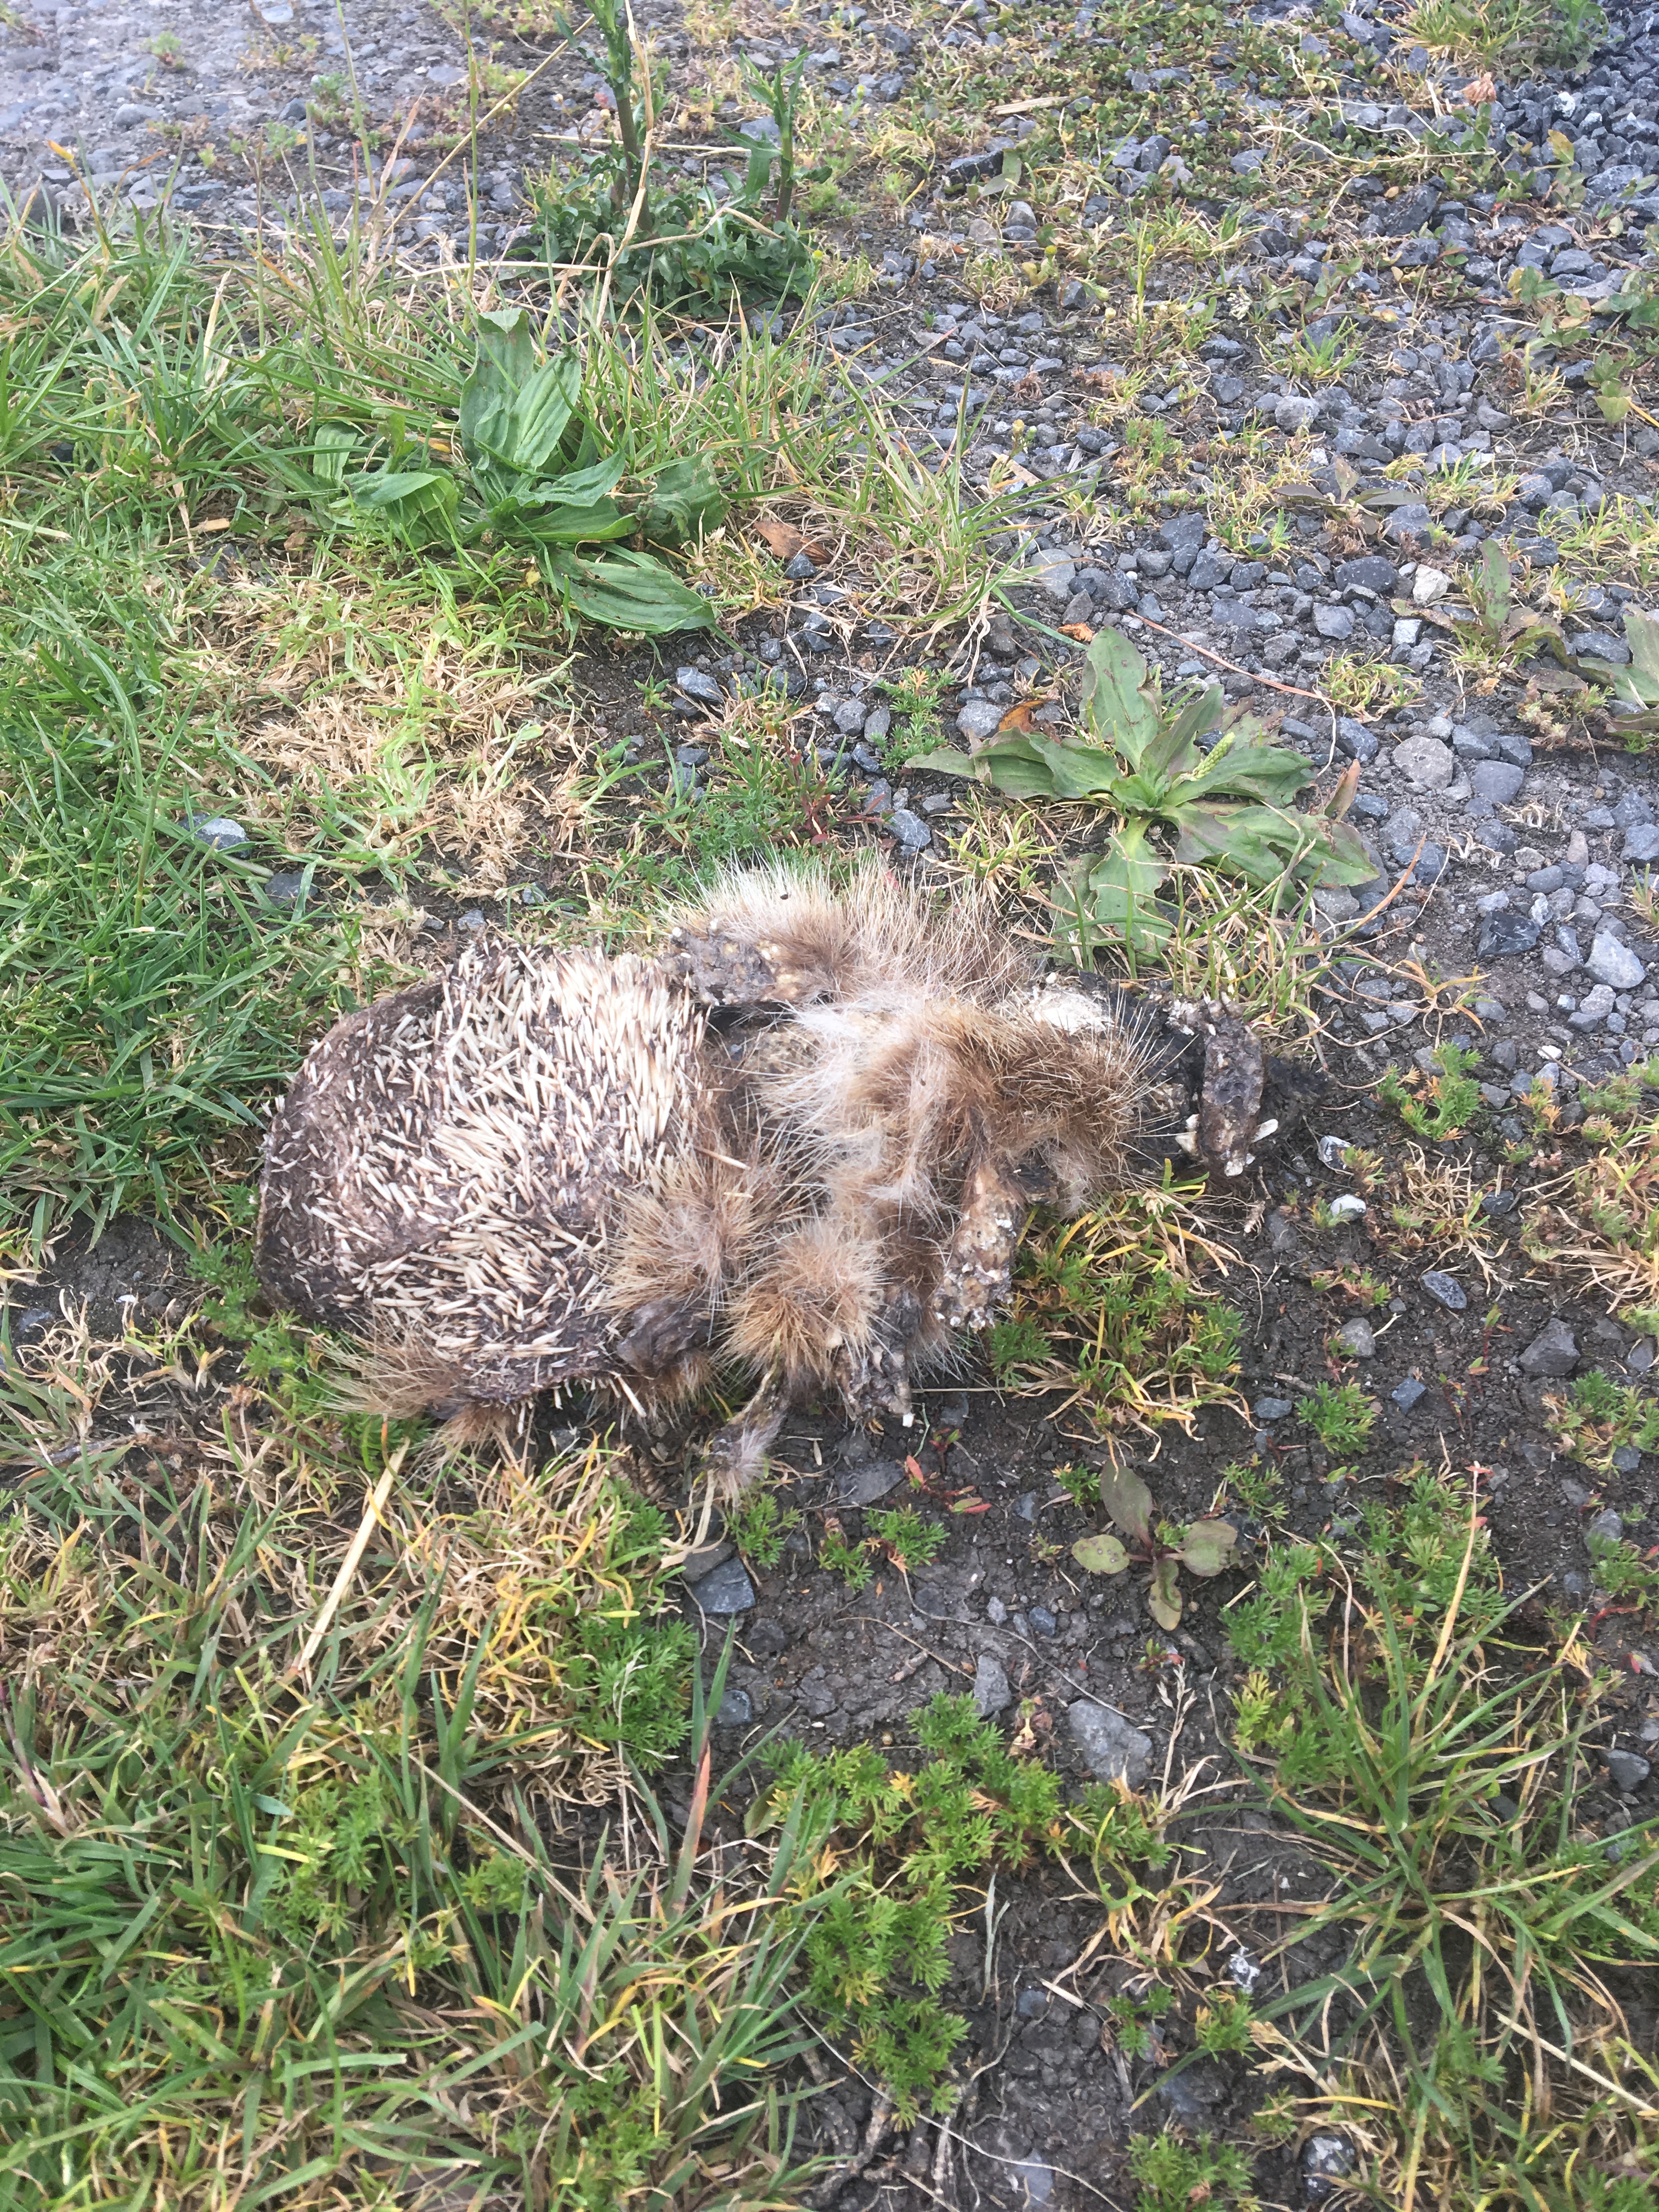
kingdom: Animalia
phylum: Chordata
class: Mammalia
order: Erinaceomorpha
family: Erinaceidae
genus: Erinaceus
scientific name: Erinaceus
